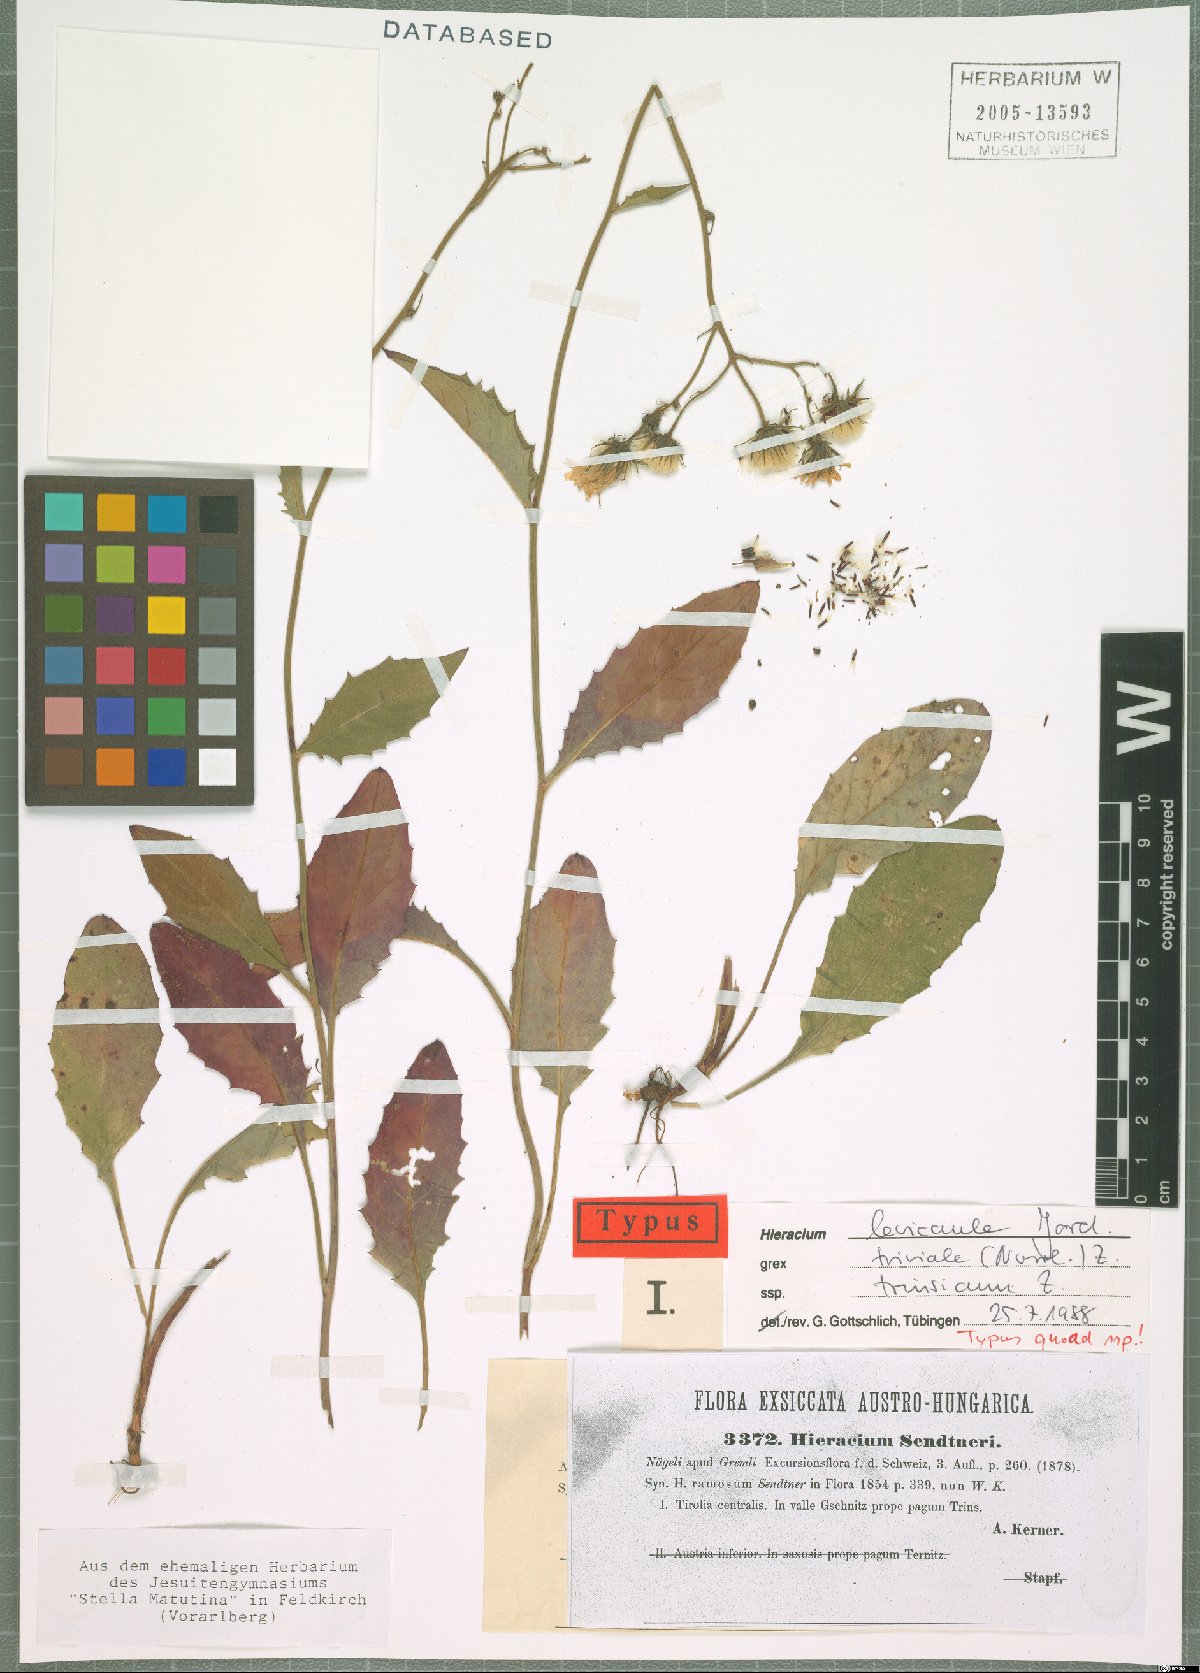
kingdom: Plantae
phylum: Tracheophyta
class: Magnoliopsida
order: Asterales
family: Asteraceae
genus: Hieracium
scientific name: Hieracium levicaule
